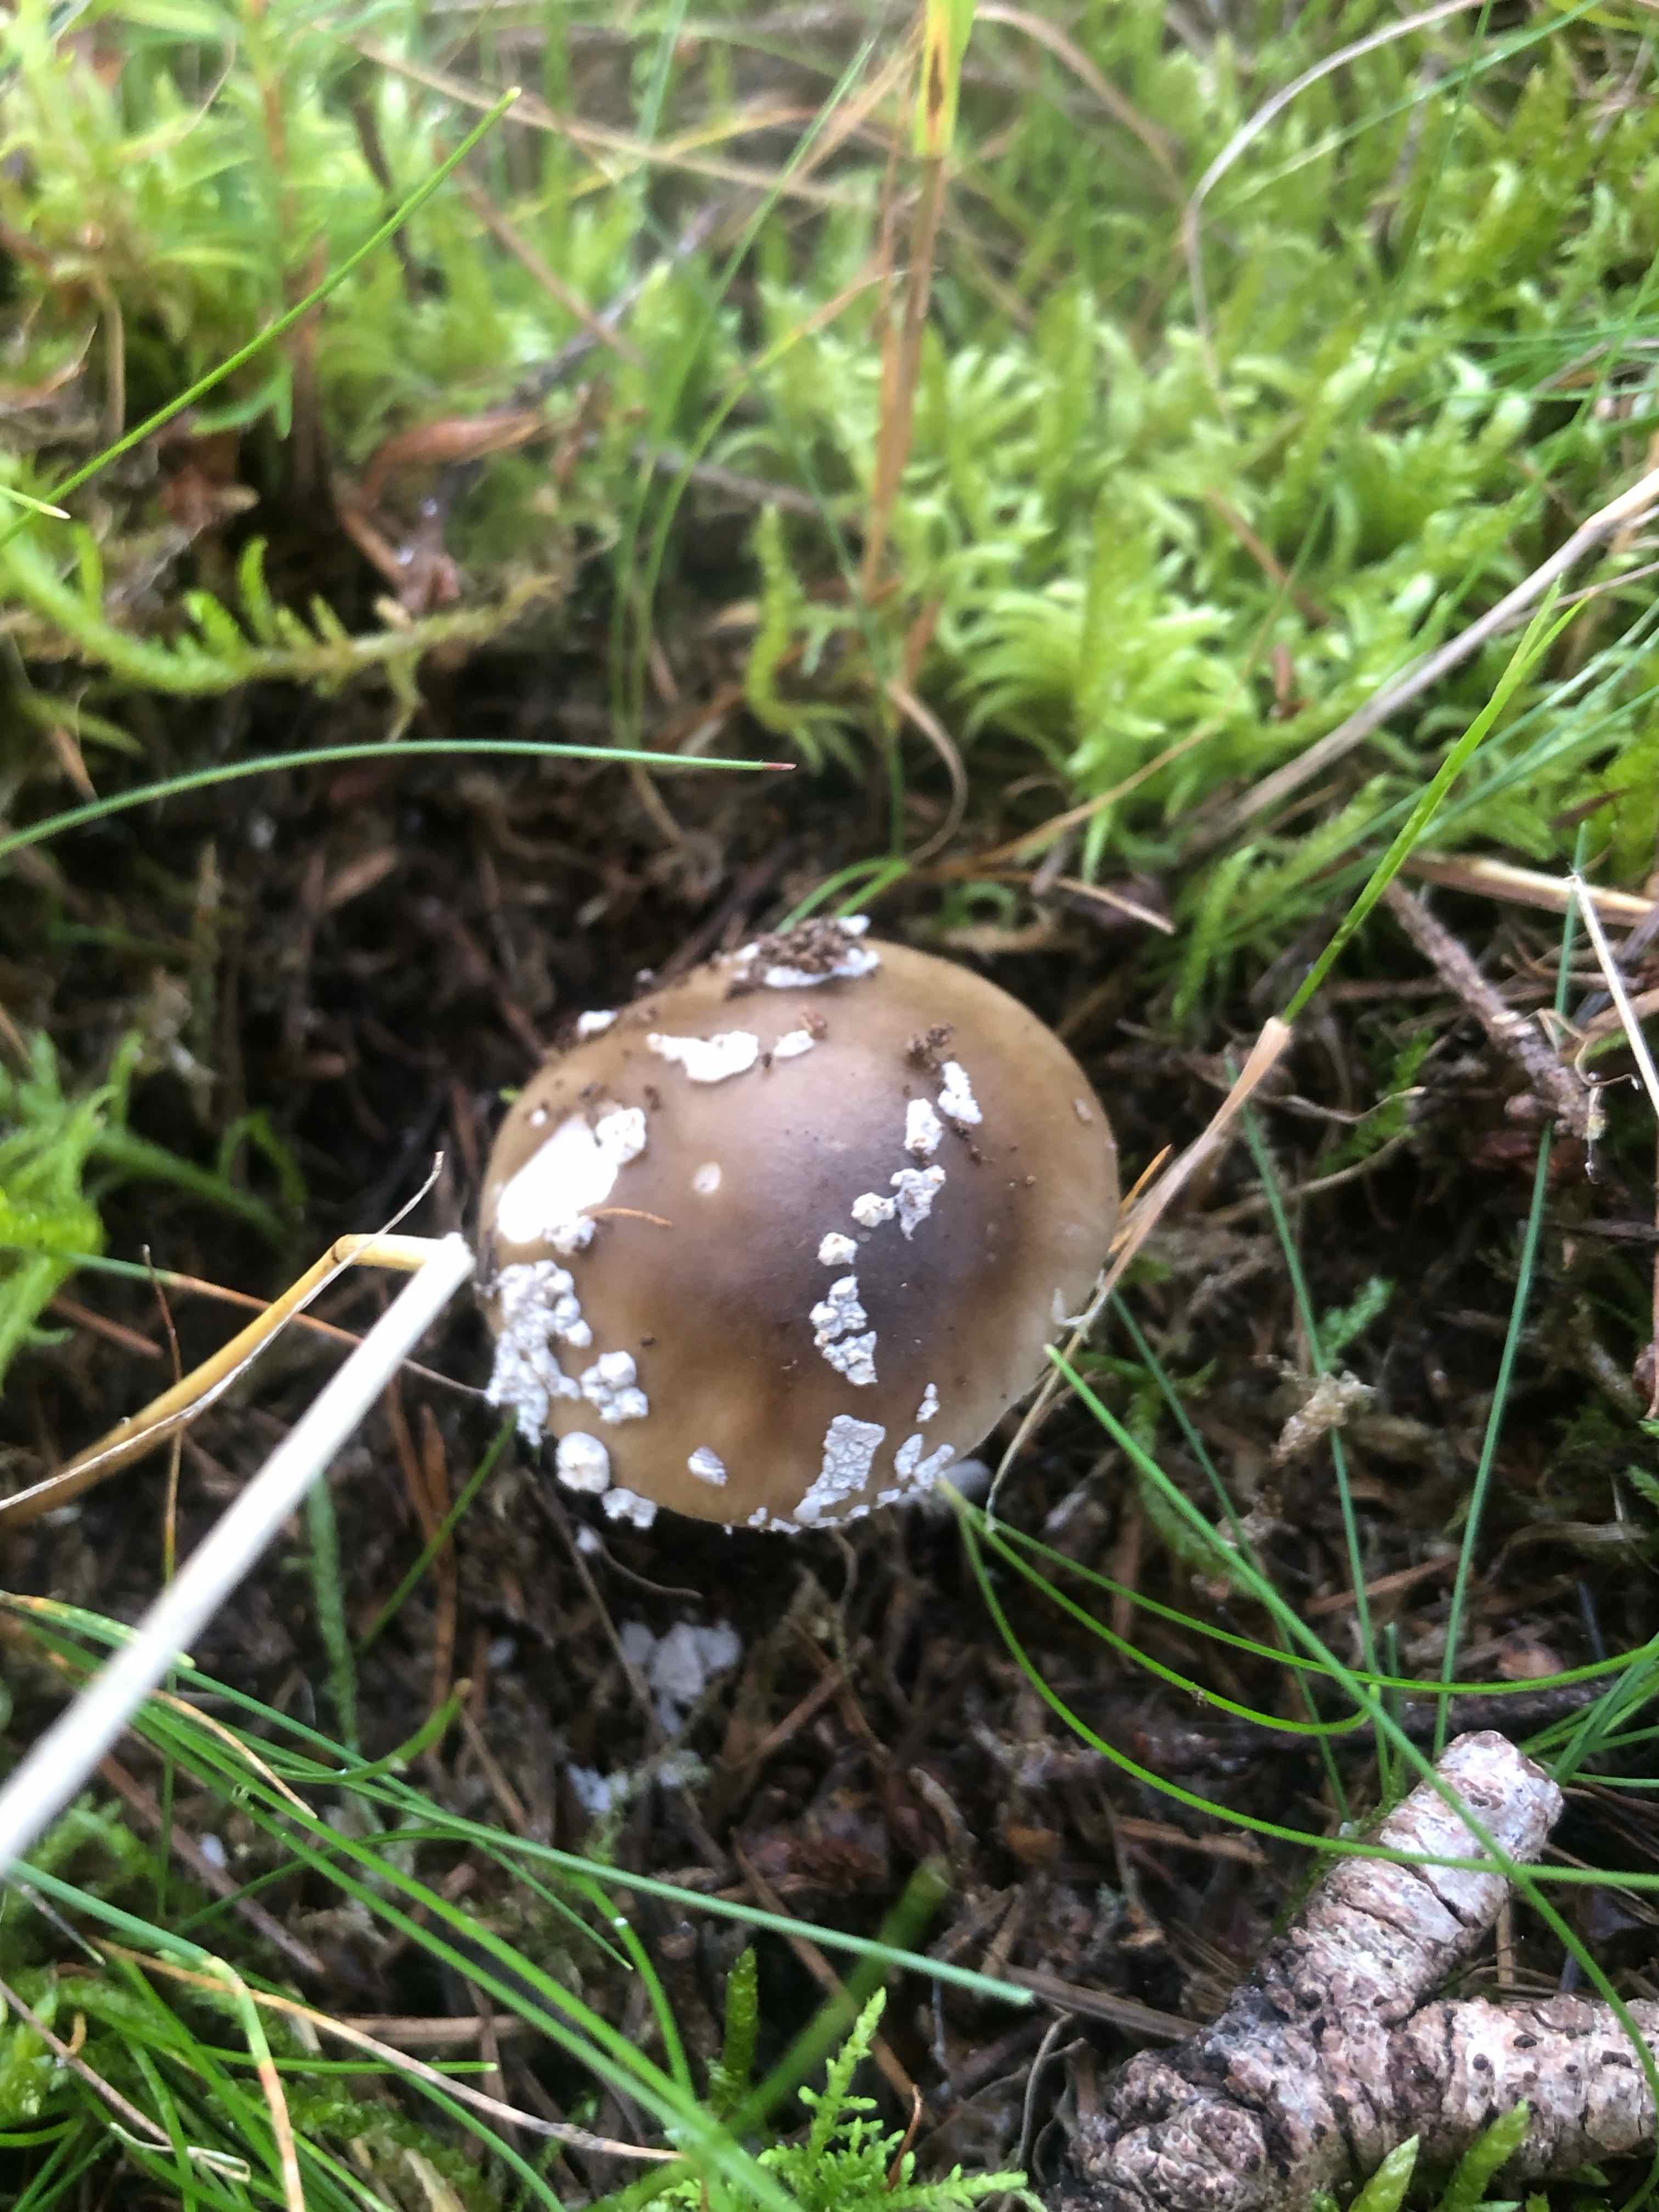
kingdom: Fungi
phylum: Basidiomycota
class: Agaricomycetes
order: Agaricales
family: Amanitaceae
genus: Amanita
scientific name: Amanita
